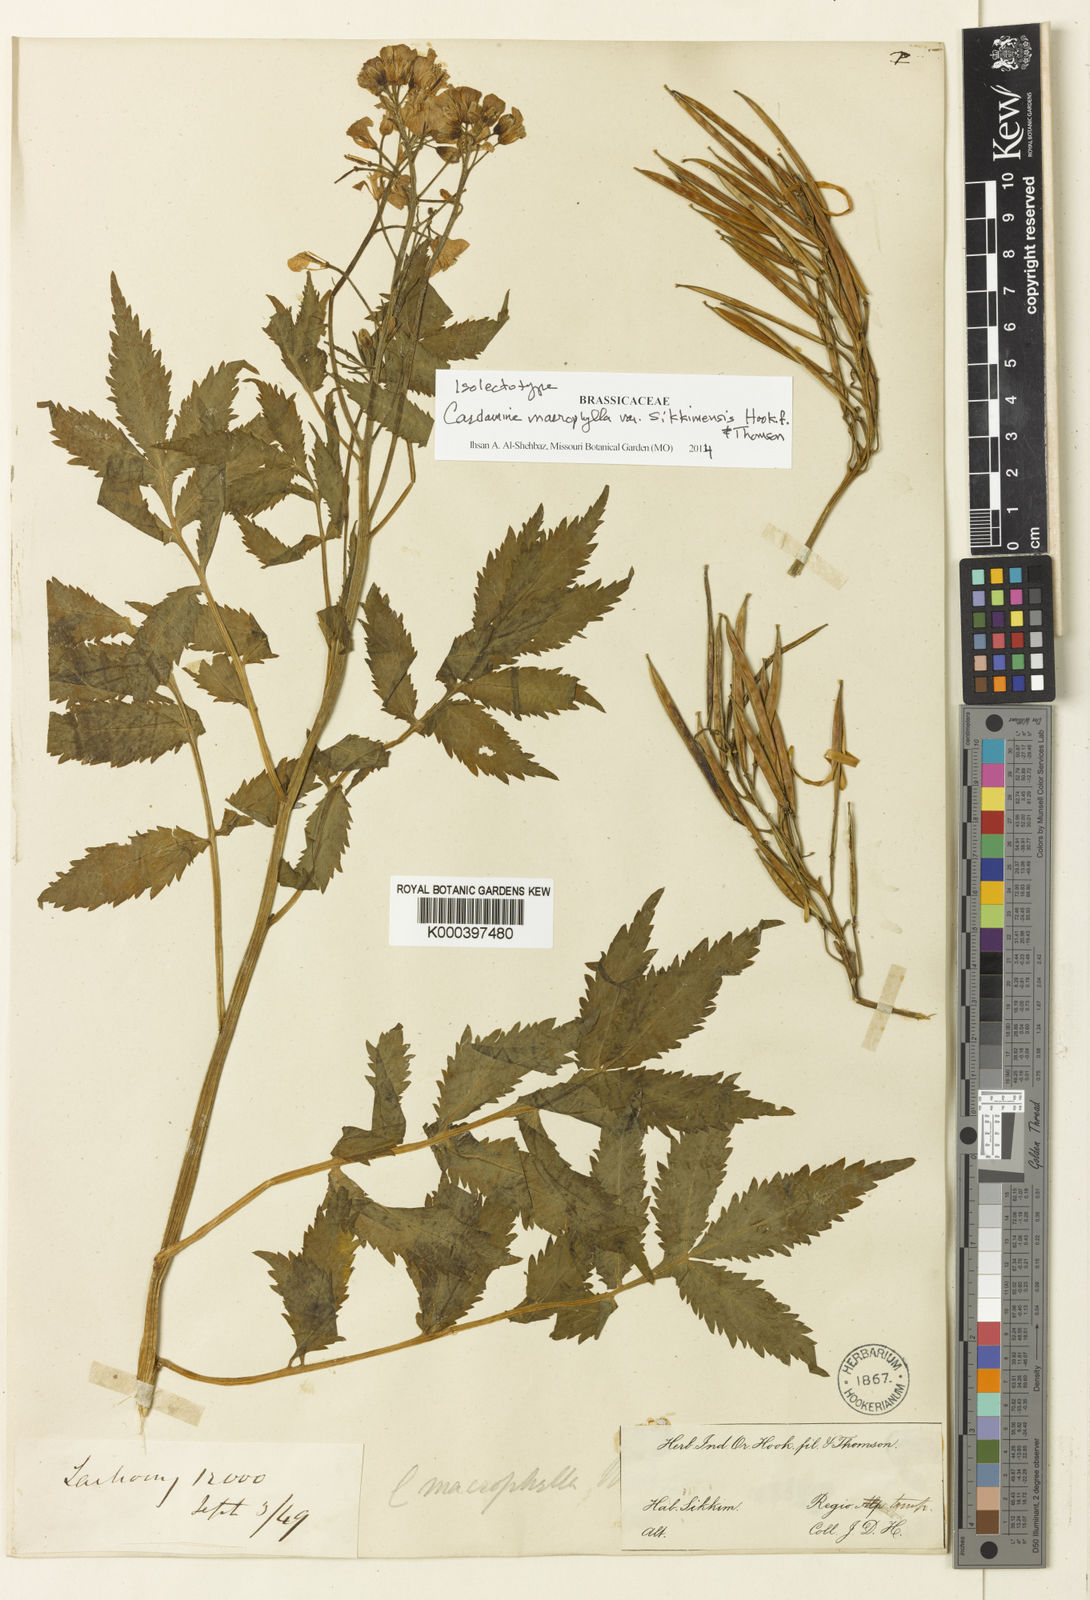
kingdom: Plantae
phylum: Tracheophyta
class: Magnoliopsida
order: Brassicales
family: Brassicaceae
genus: Cardamine
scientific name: Cardamine macrophylla
